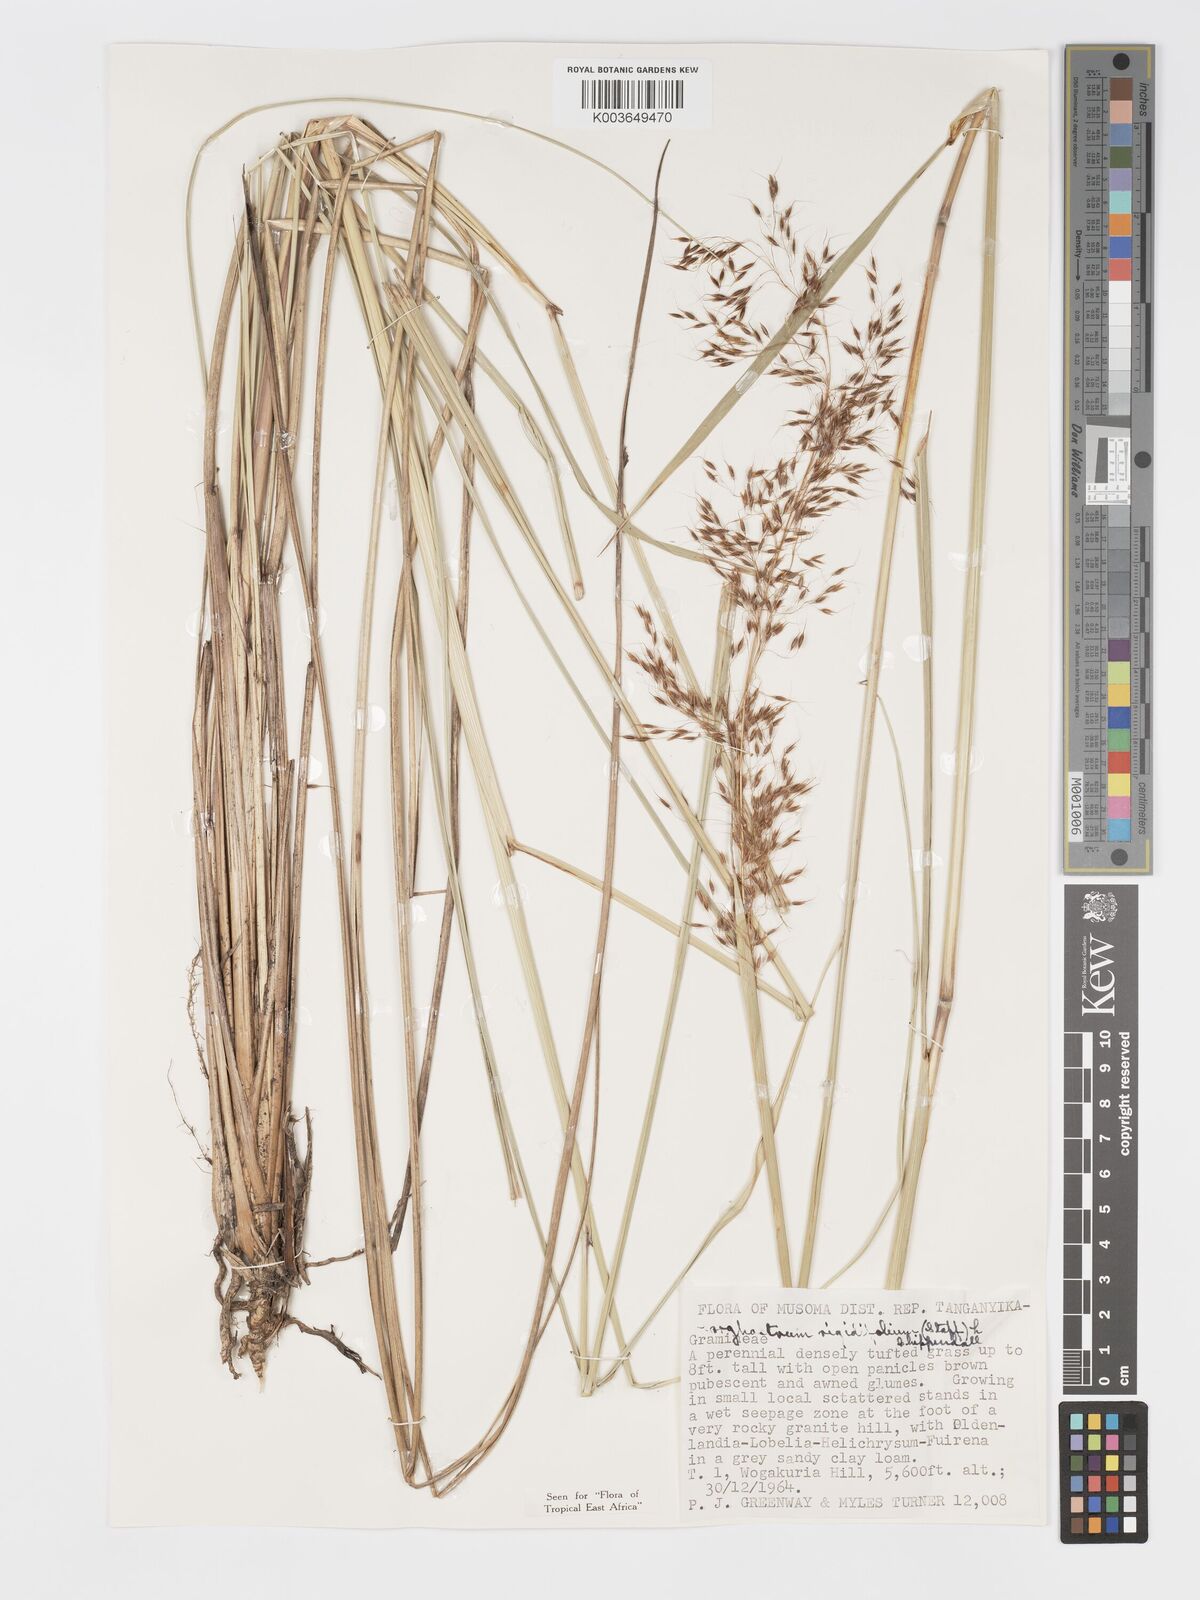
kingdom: Plantae
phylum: Tracheophyta
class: Liliopsida
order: Poales
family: Poaceae
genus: Sorghastrum
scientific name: Sorghastrum stipoides
